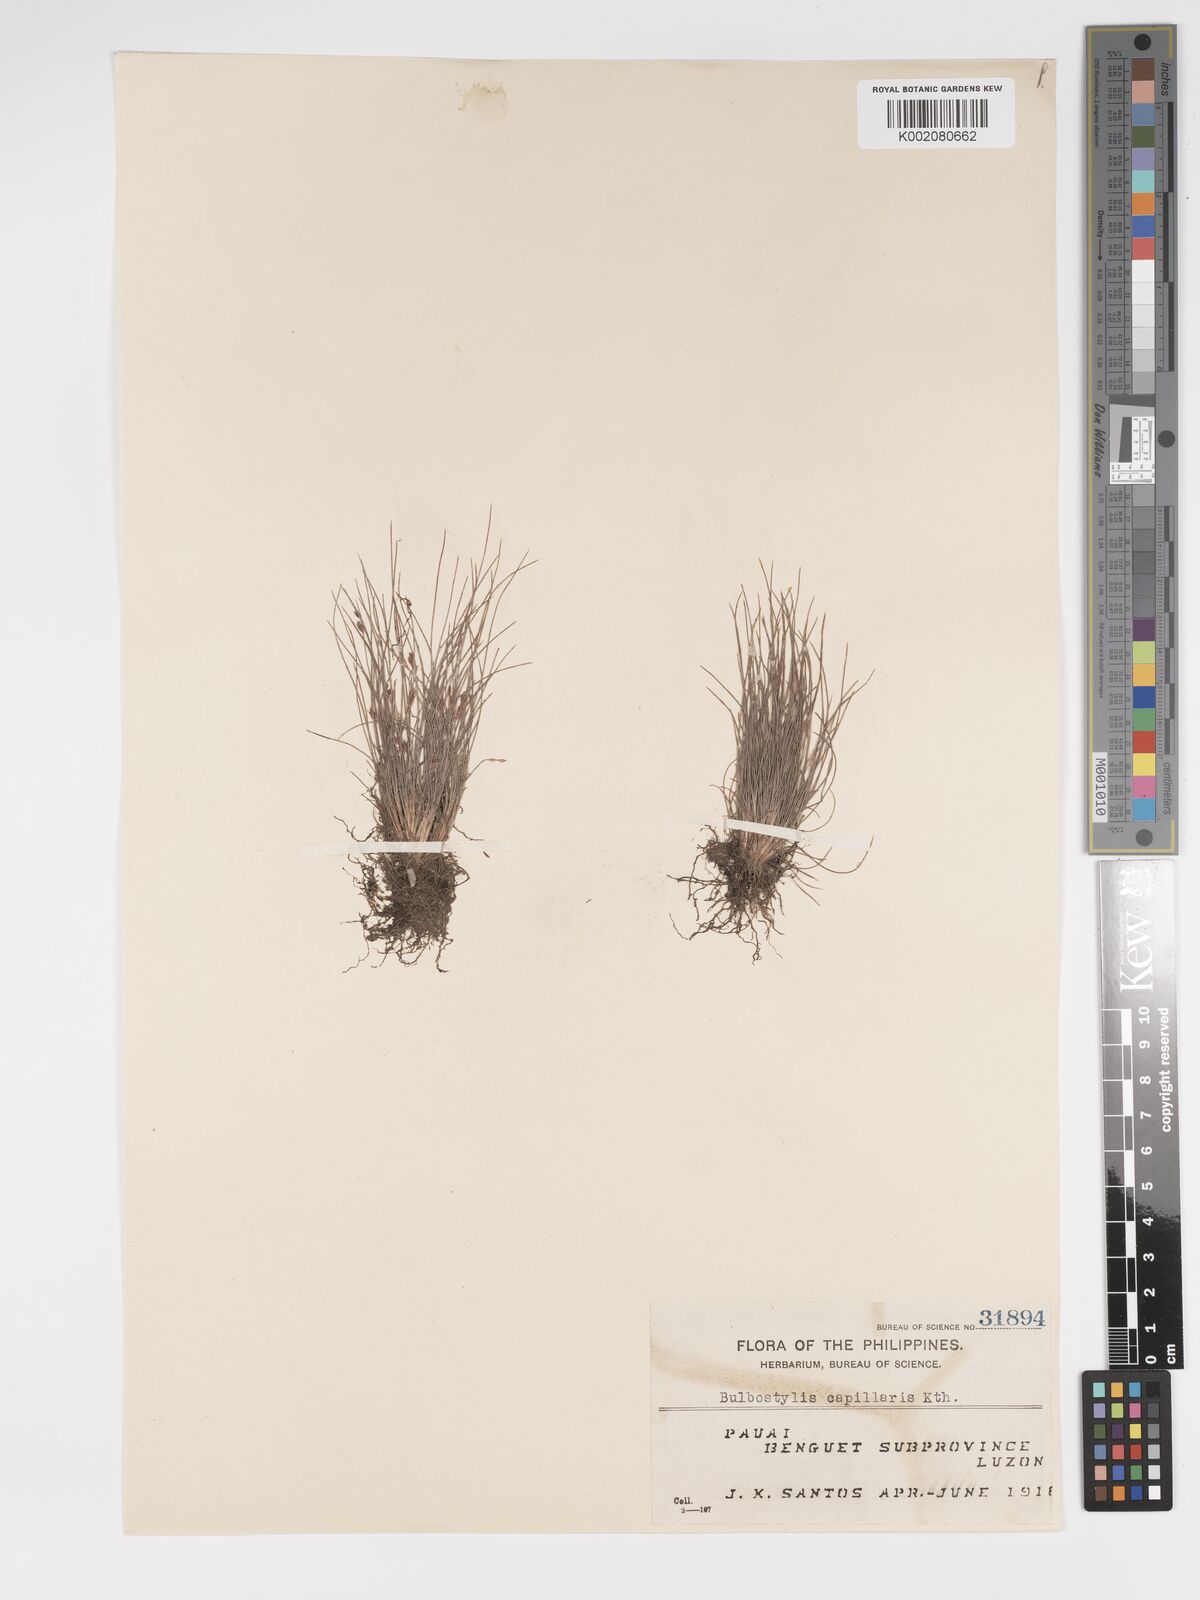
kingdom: Plantae
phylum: Tracheophyta
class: Liliopsida
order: Poales
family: Cyperaceae
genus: Bulbostylis
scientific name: Bulbostylis densa
